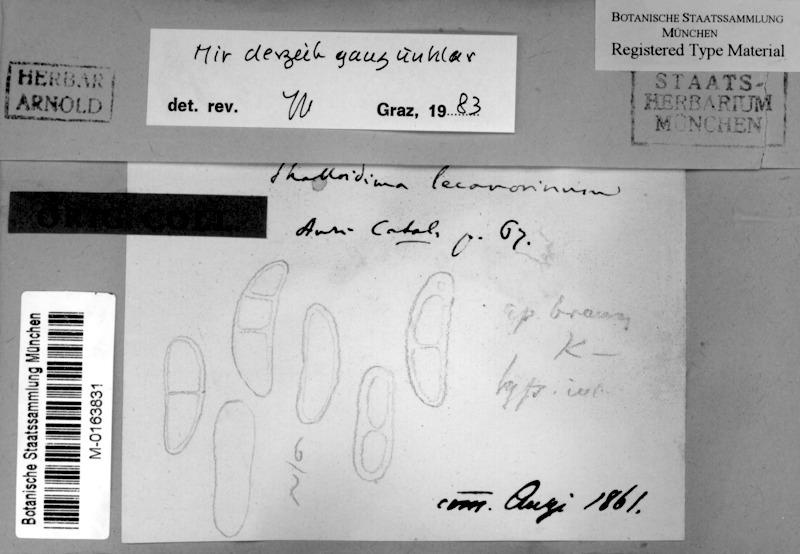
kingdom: Fungi
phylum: Ascomycota
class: Lecanoromycetes
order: Teloschistales
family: Leprocaulaceae
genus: Halecania
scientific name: Halecania lecanorina
